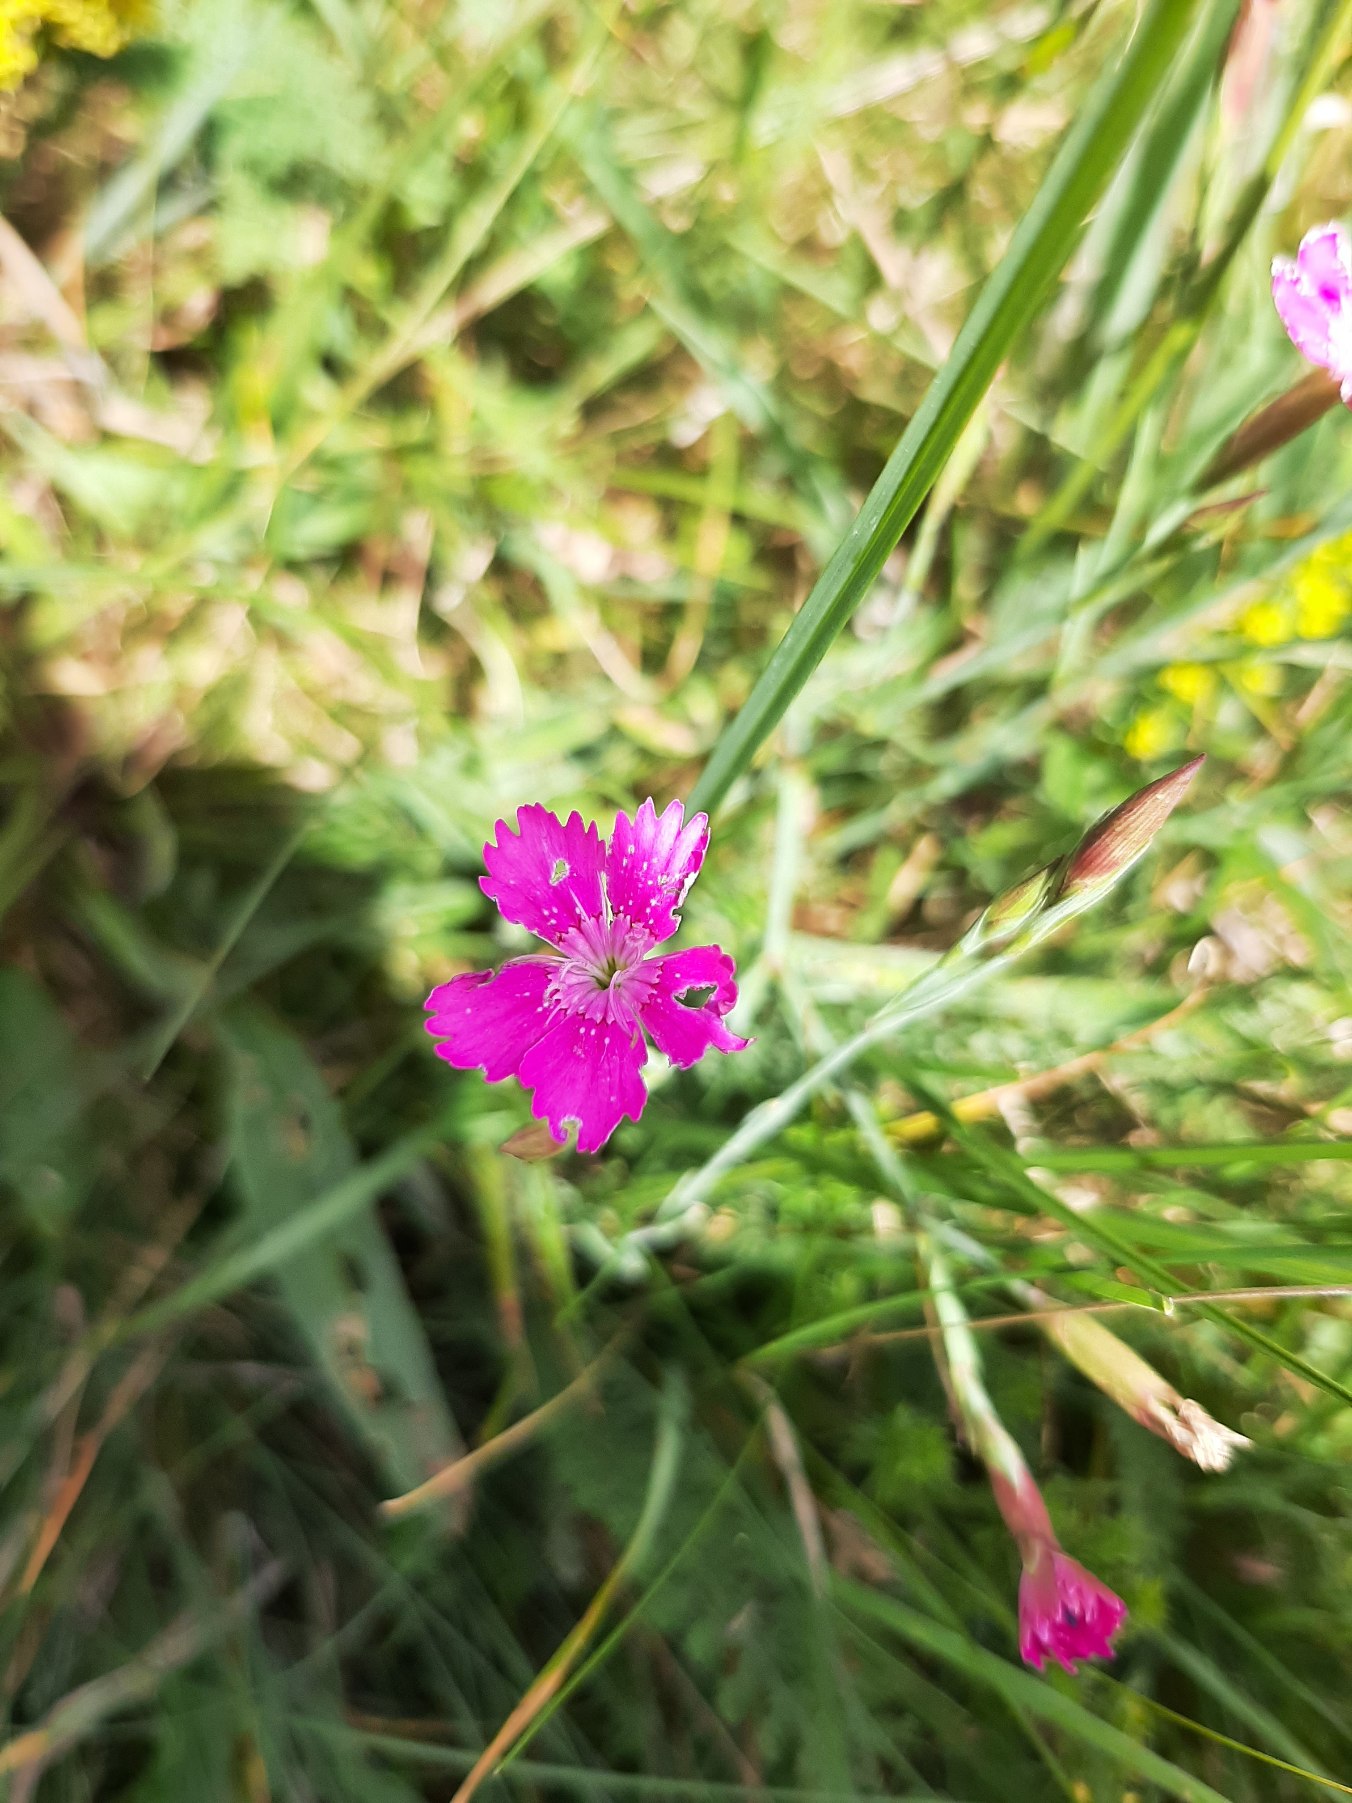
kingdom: Plantae
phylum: Tracheophyta
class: Magnoliopsida
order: Caryophyllales
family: Caryophyllaceae
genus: Dianthus
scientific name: Dianthus deltoides
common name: Bakke-nellike
